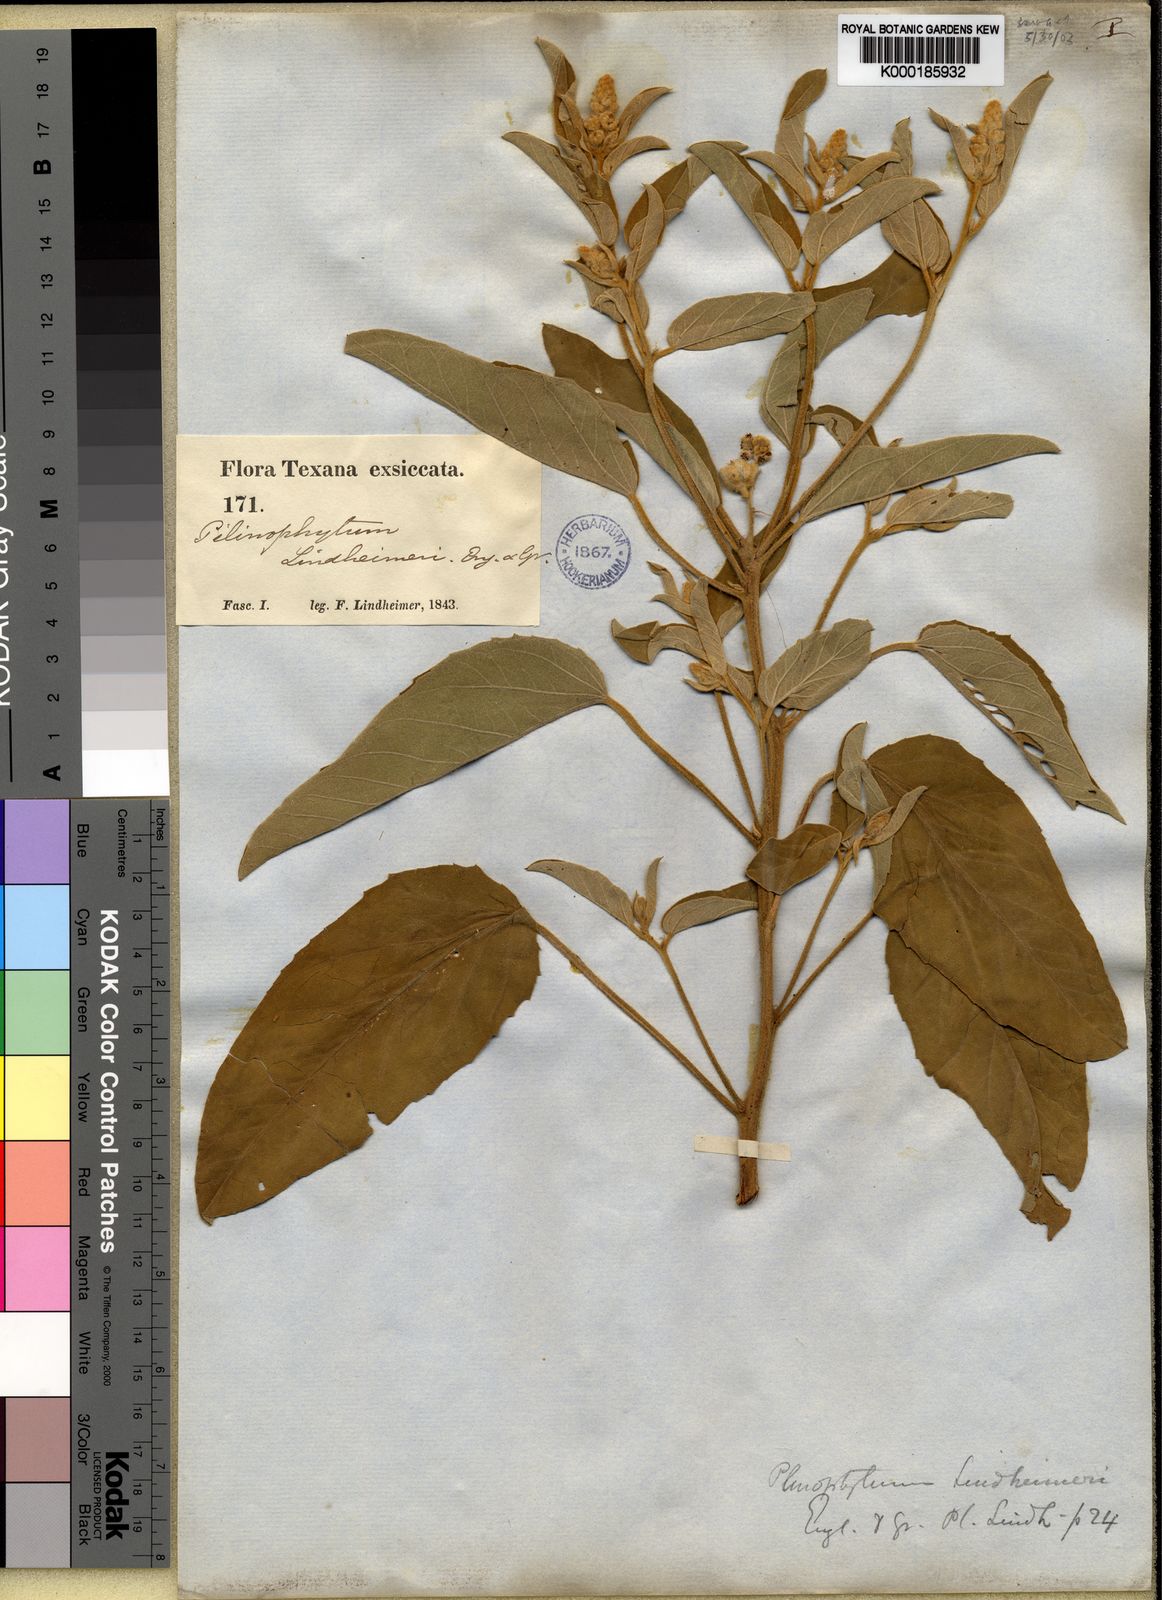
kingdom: Plantae
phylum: Tracheophyta
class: Magnoliopsida
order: Malpighiales
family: Euphorbiaceae
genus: Croton
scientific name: Croton capitatus
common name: Woolly croton
